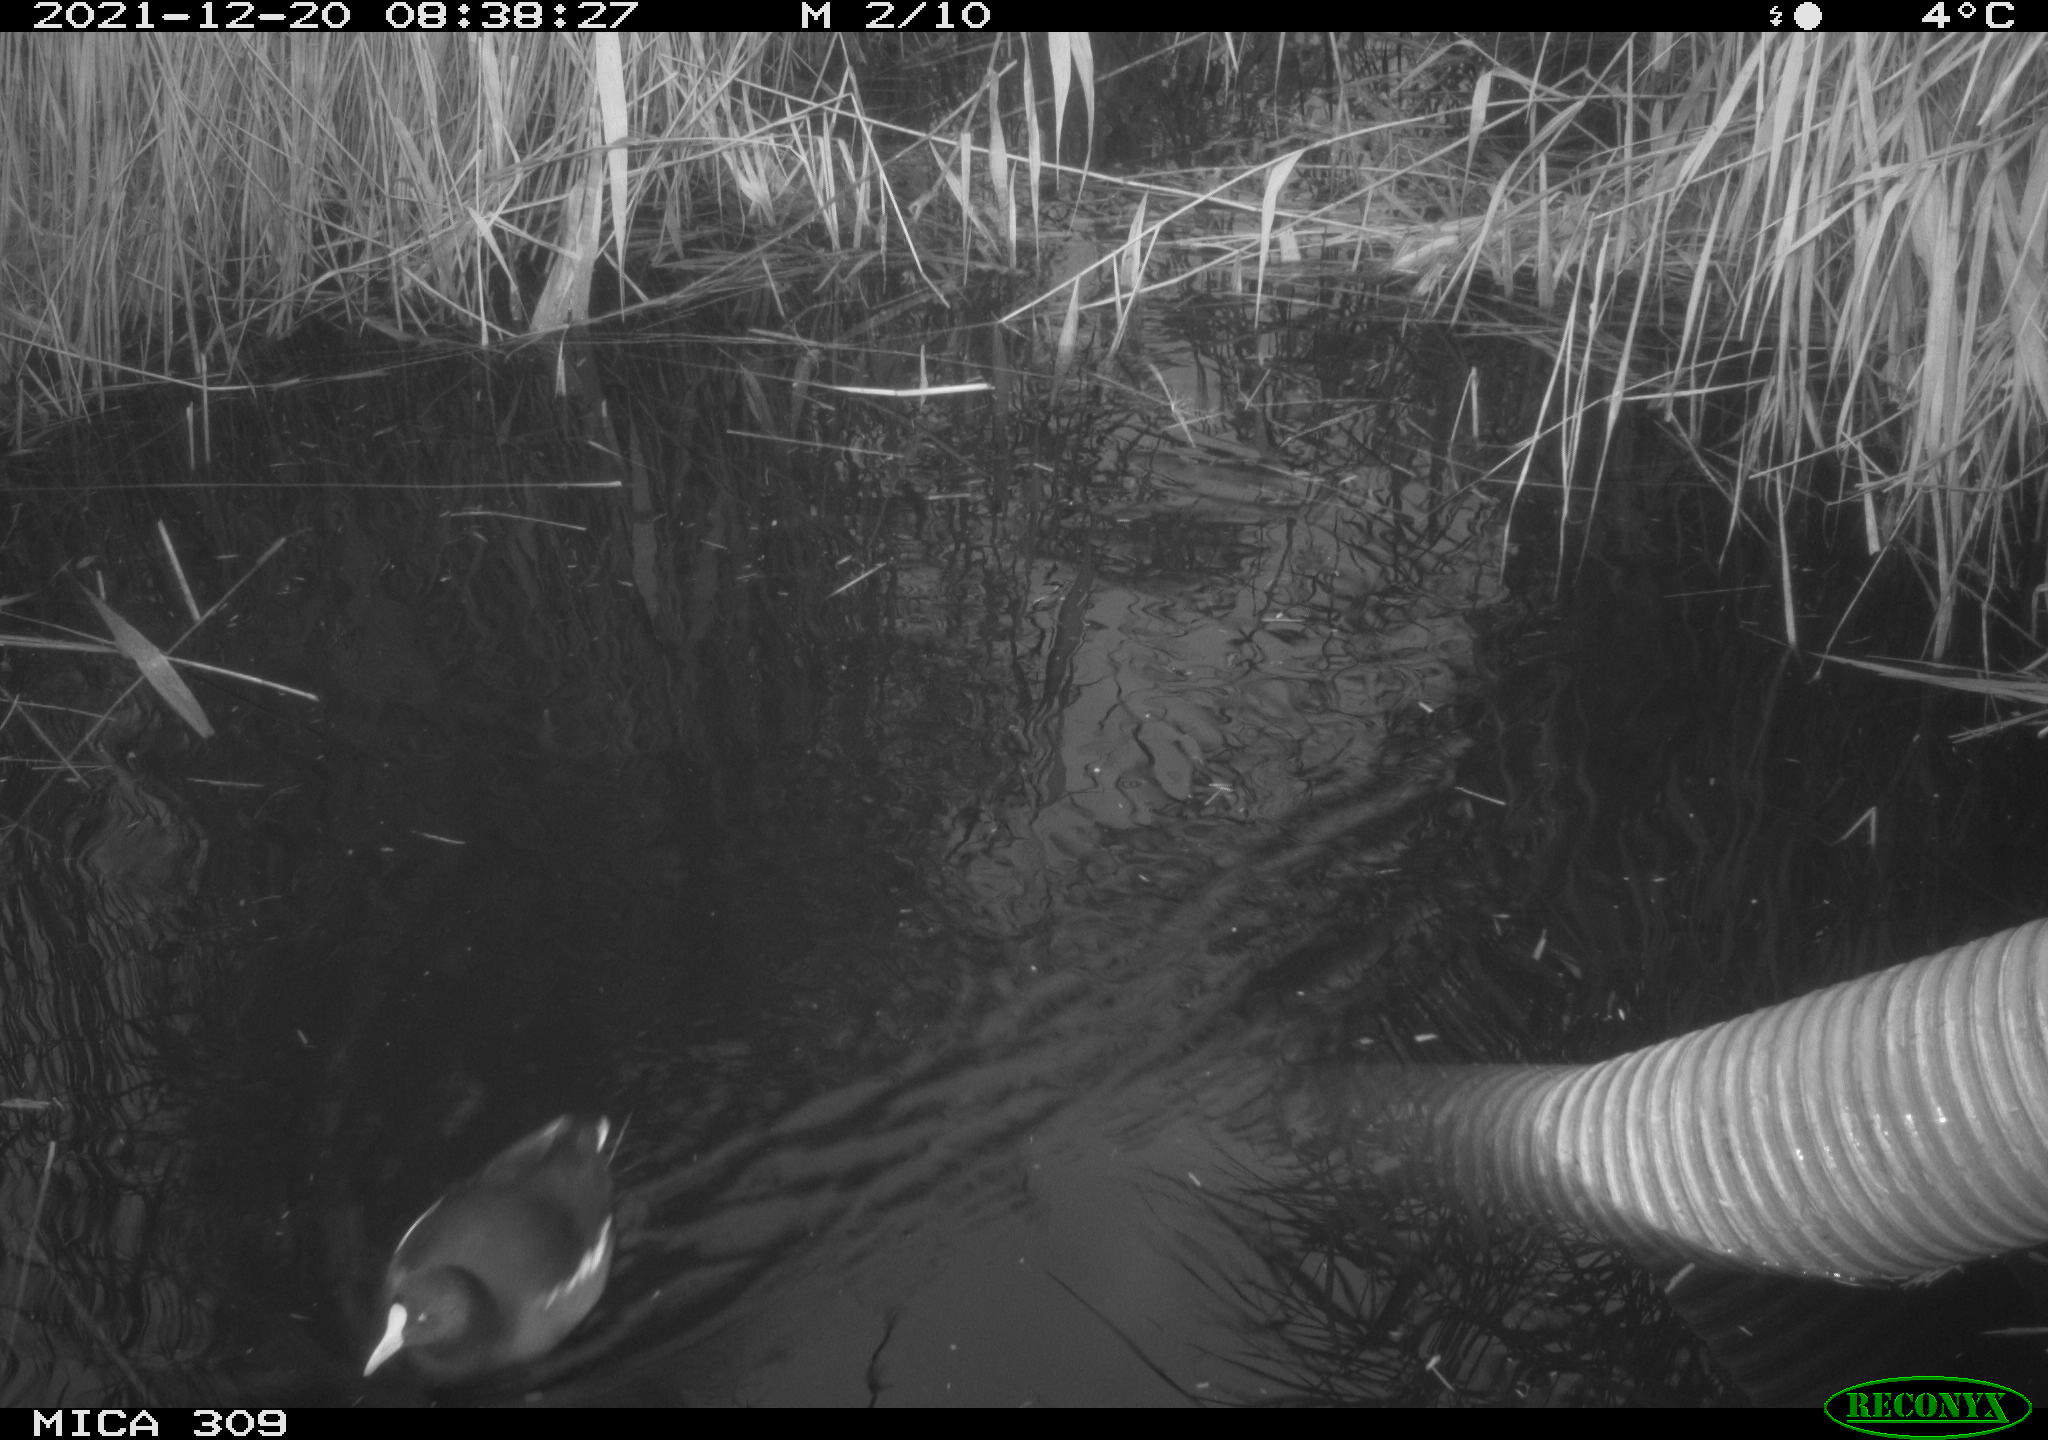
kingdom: Animalia
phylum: Chordata
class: Aves
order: Gruiformes
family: Rallidae
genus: Gallinula
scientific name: Gallinula chloropus
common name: Common moorhen
